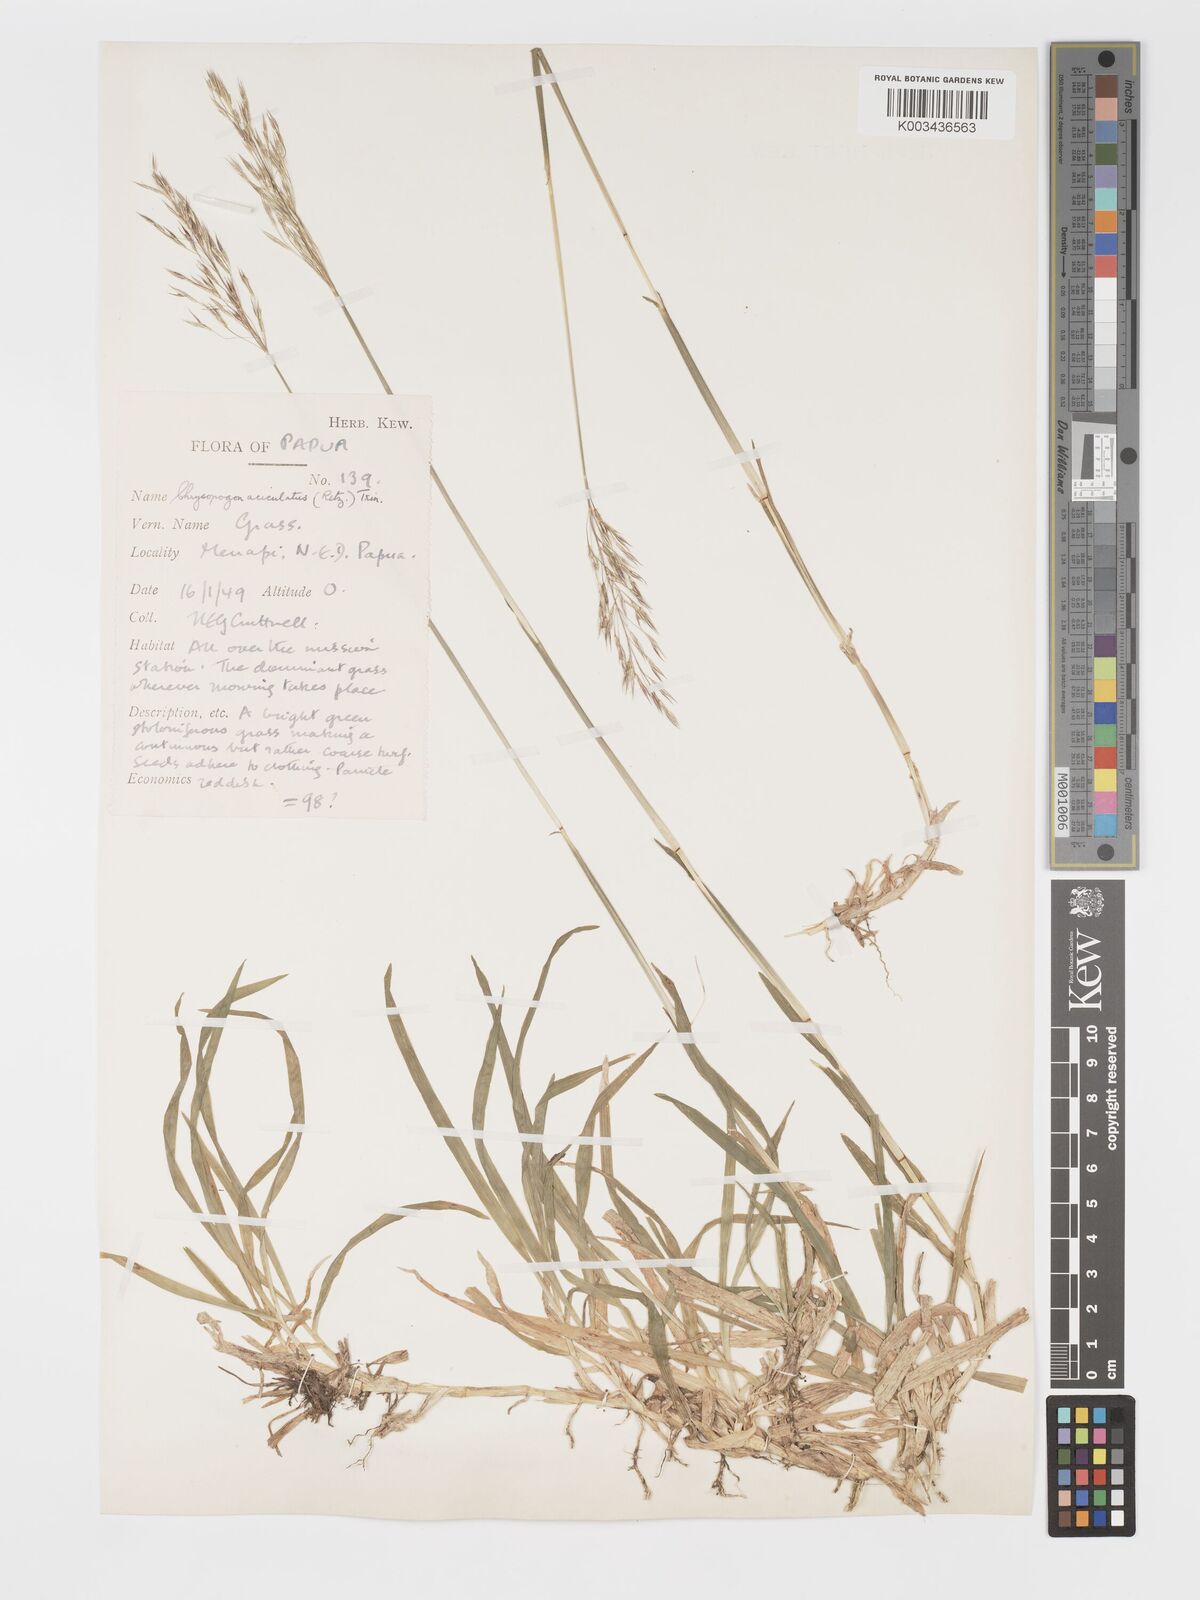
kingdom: Plantae
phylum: Tracheophyta
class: Liliopsida
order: Poales
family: Poaceae
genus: Chrysopogon
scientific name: Chrysopogon aciculatus
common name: Pilipiliula
